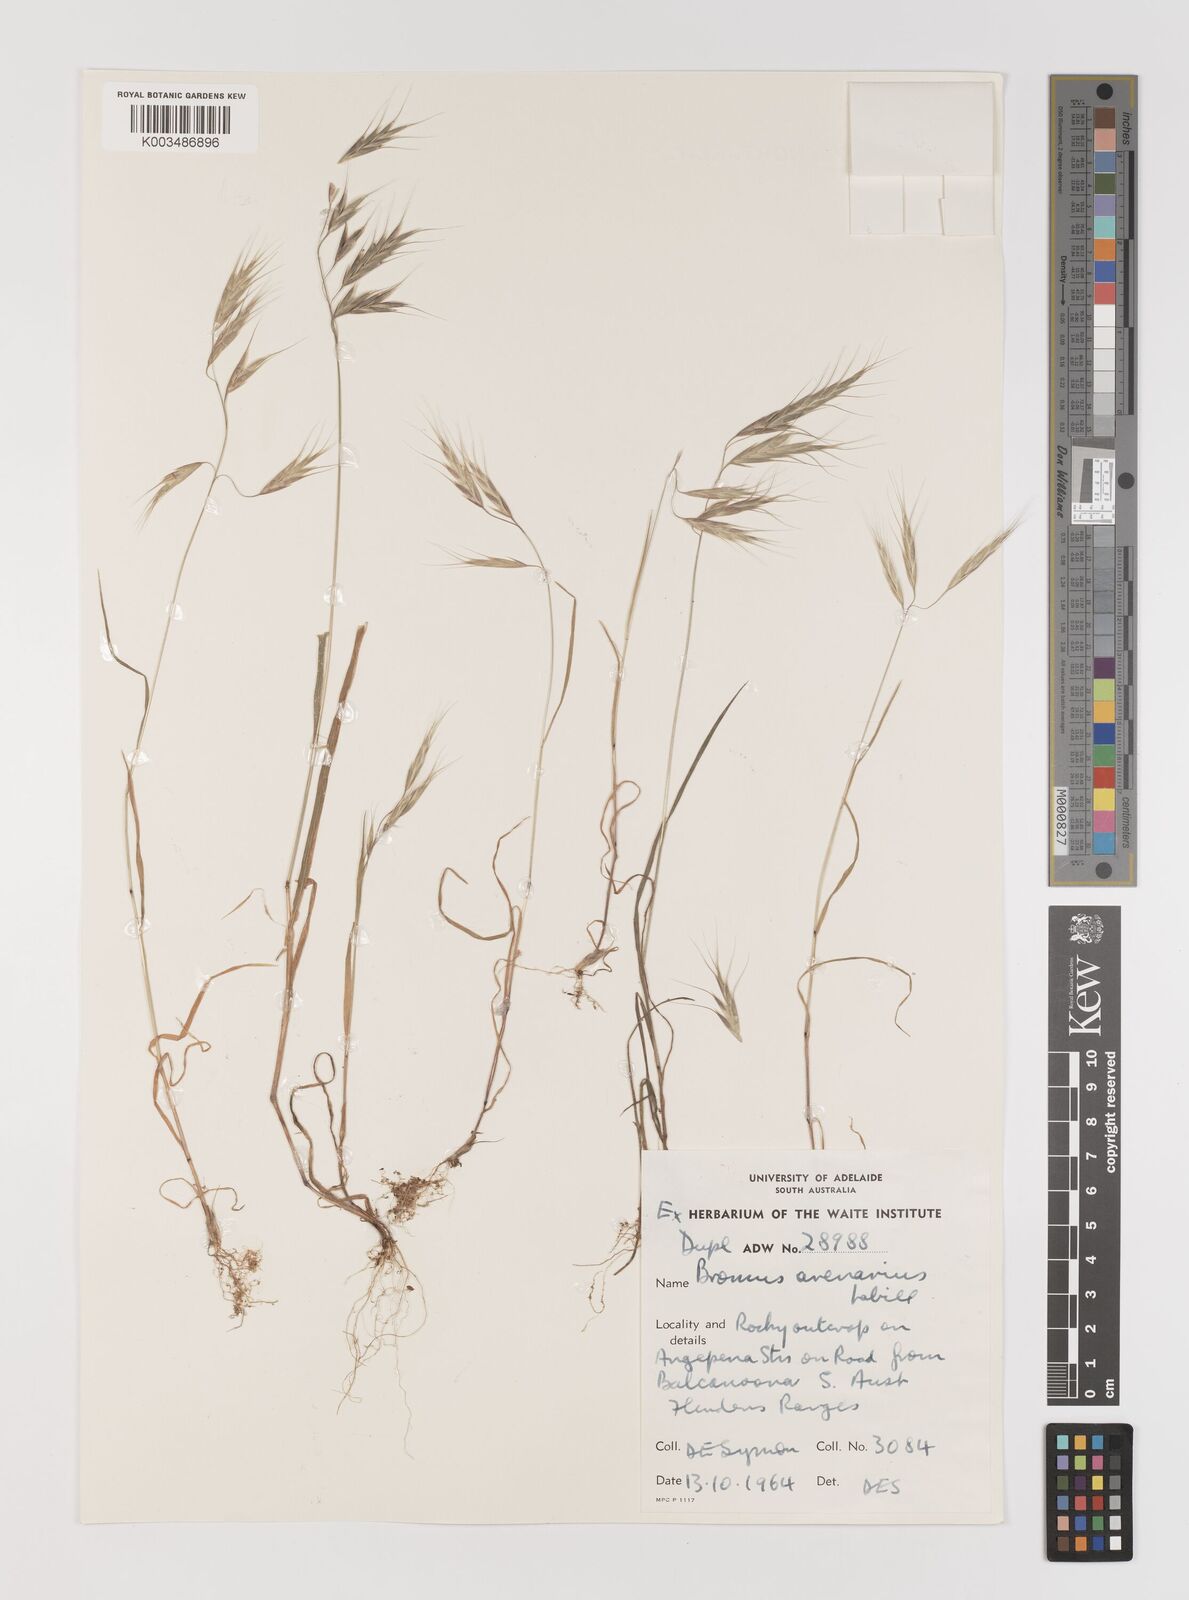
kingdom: Plantae
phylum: Tracheophyta
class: Liliopsida
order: Poales
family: Poaceae
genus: Bromus
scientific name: Bromus arenarius
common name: Australian brome
